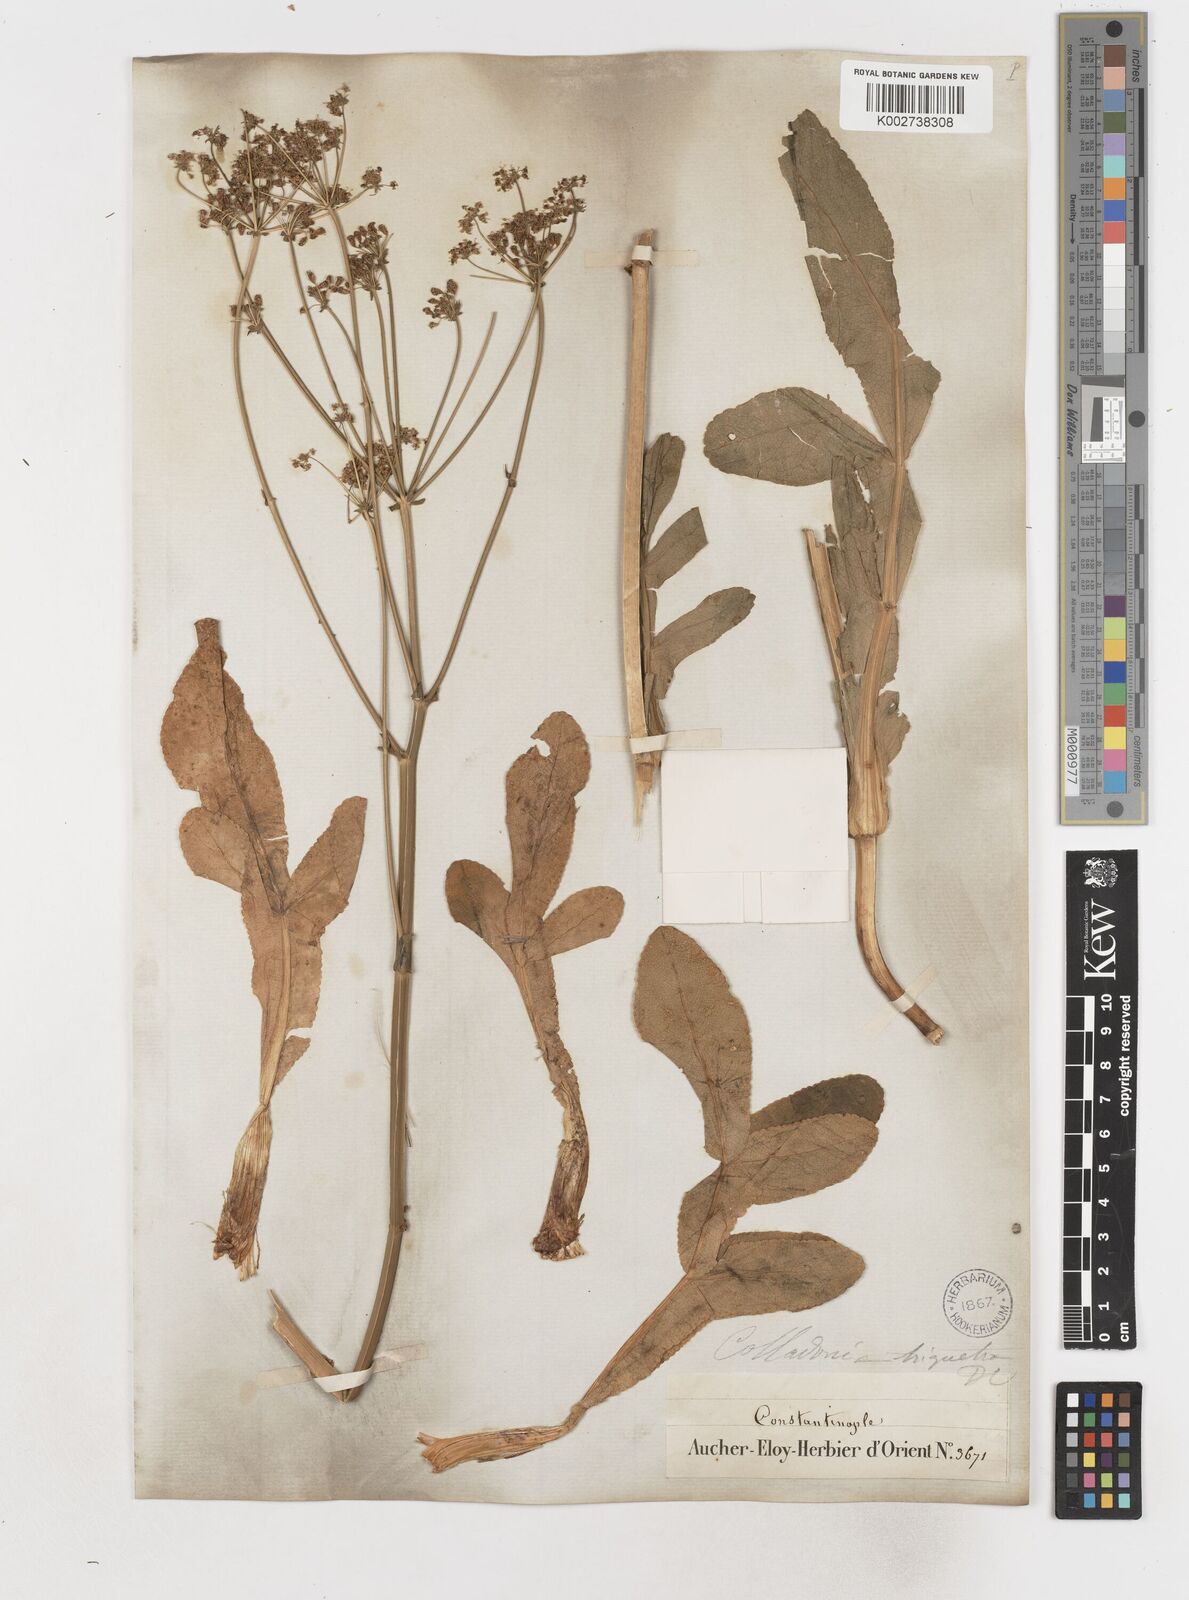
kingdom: Plantae
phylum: Tracheophyta
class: Magnoliopsida
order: Apiales
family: Apiaceae
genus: Heptaptera
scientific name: Heptaptera triquetra
